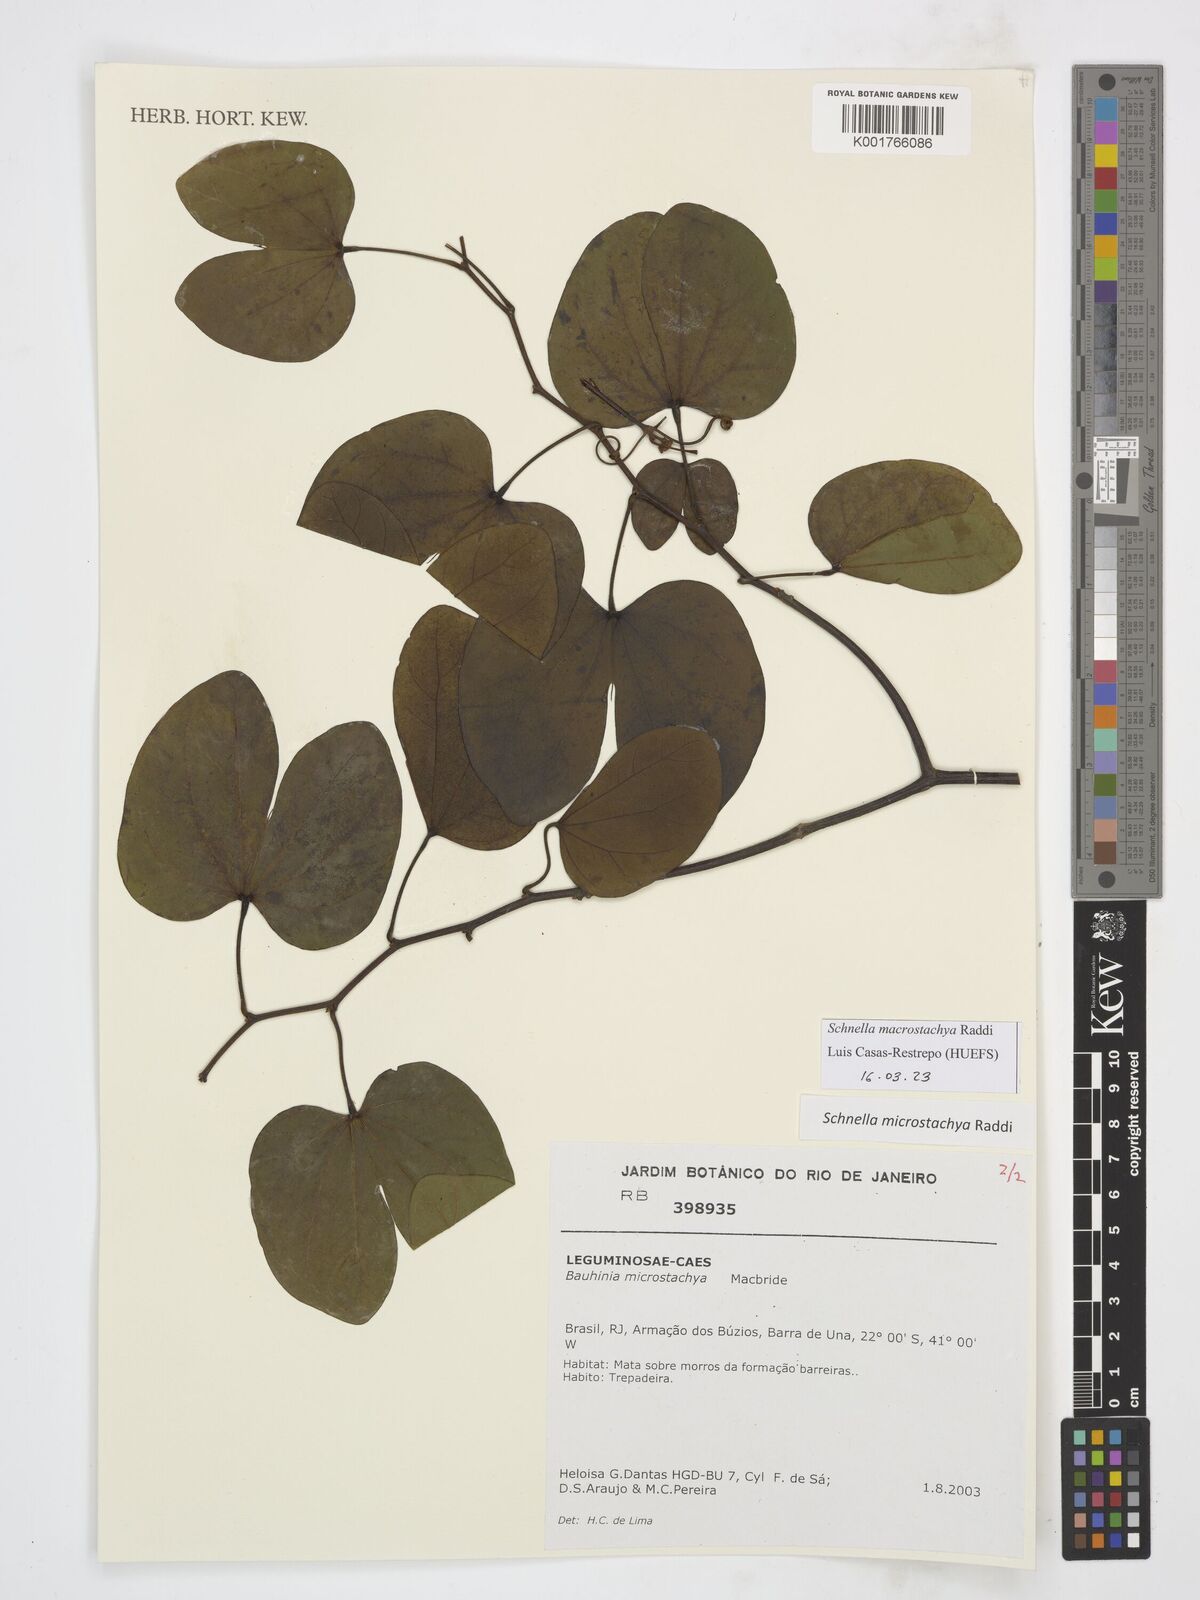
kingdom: Plantae
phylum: Tracheophyta
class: Magnoliopsida
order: Fabales
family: Fabaceae
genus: Schnella
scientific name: Schnella macrostachya
